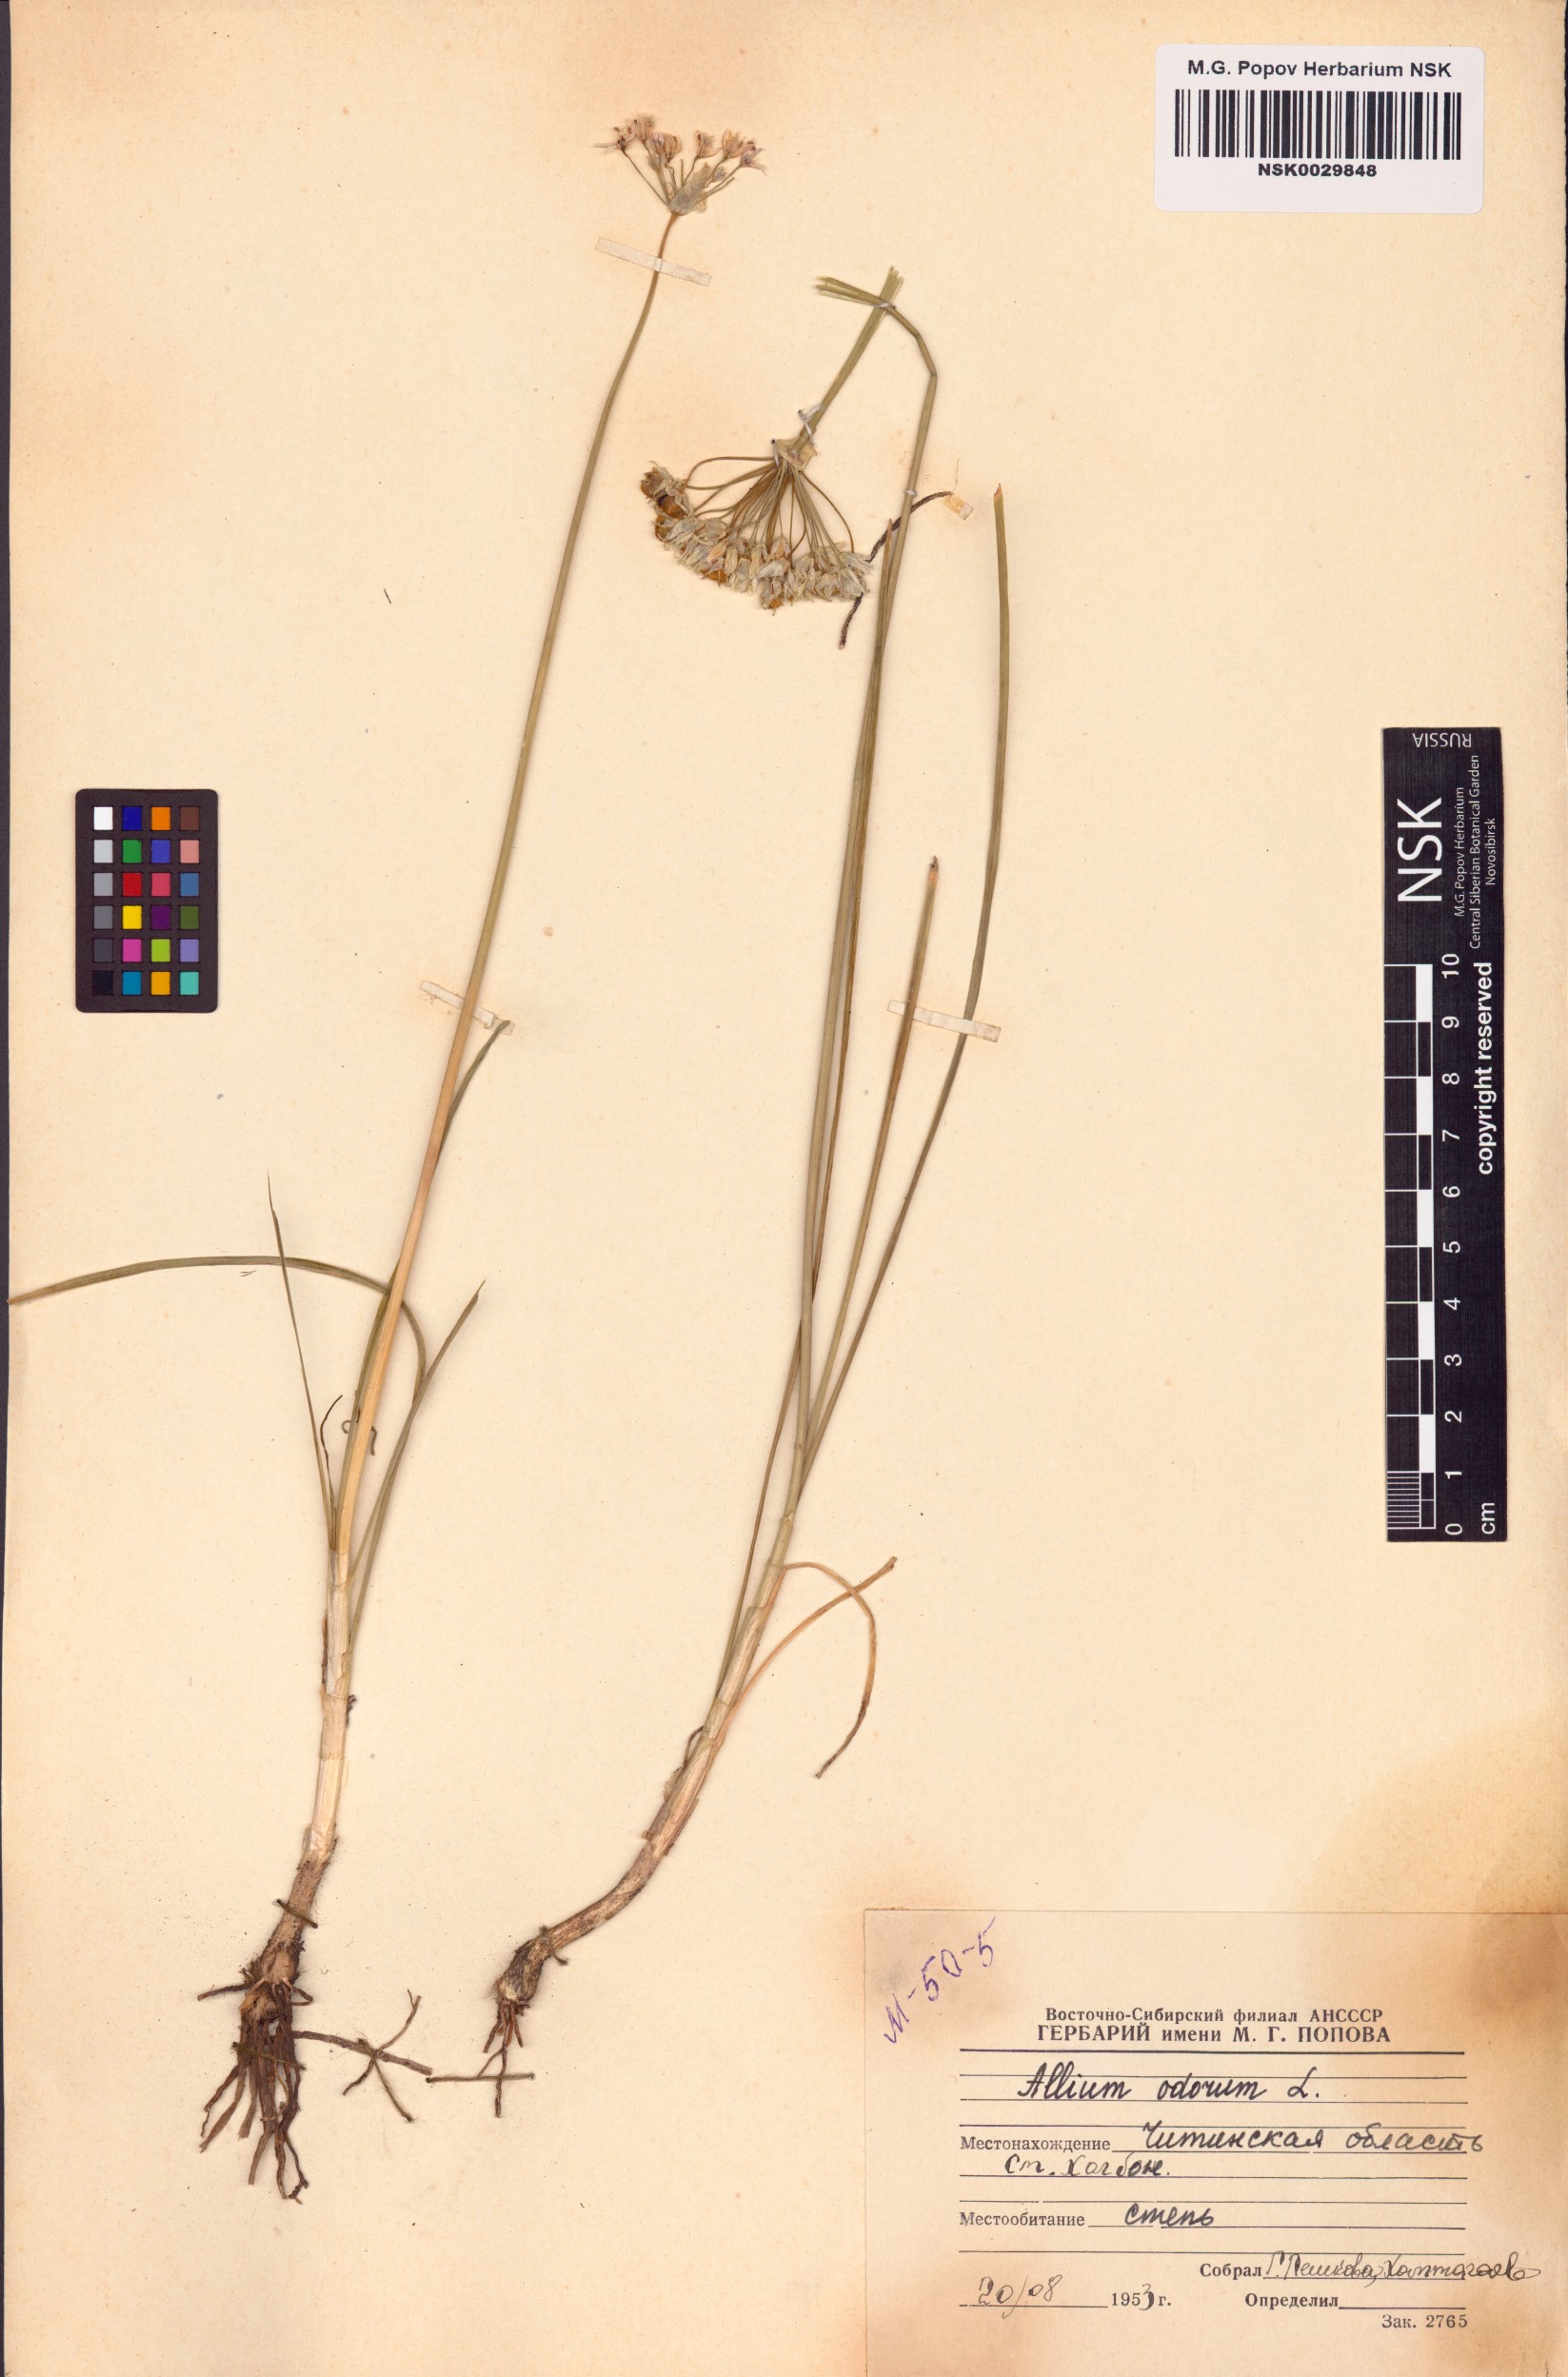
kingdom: Plantae
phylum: Tracheophyta
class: Liliopsida
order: Asparagales
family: Amaryllidaceae
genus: Allium
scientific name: Allium ramosum
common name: Fragrant garlic
